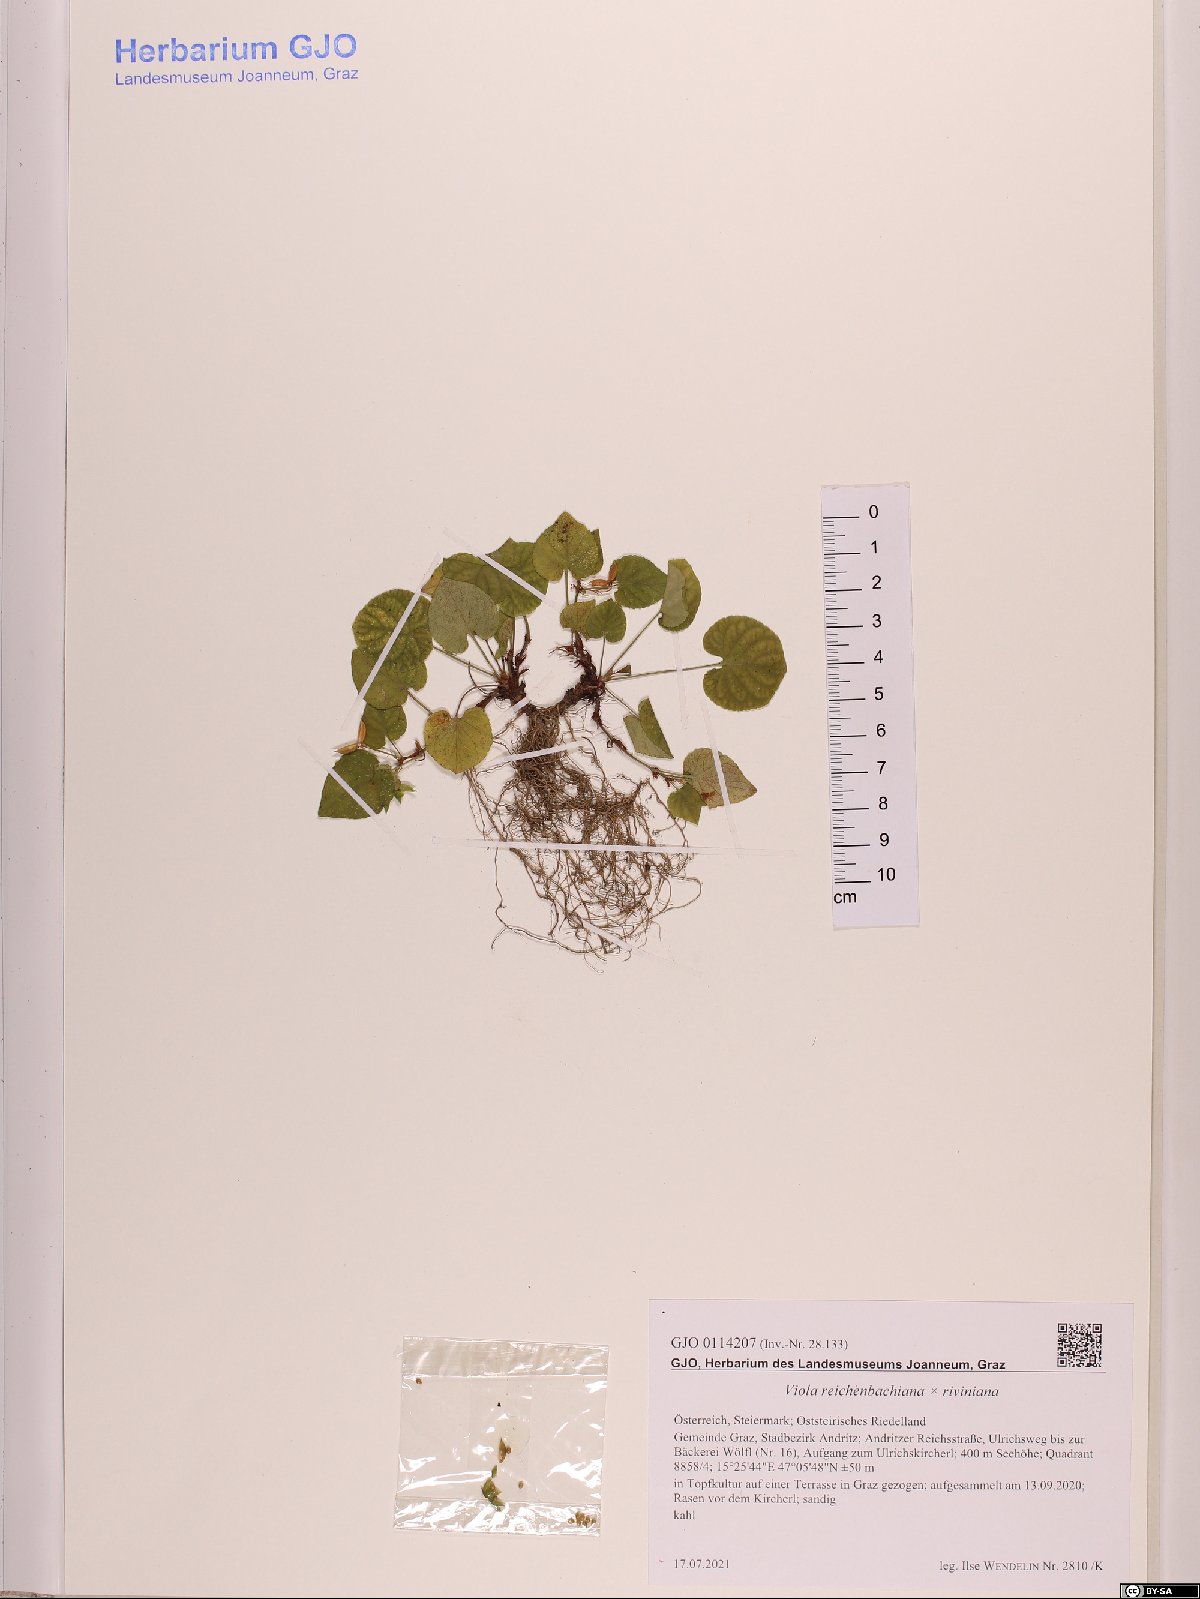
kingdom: Plantae
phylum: Tracheophyta
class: Magnoliopsida
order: Malpighiales
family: Violaceae
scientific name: Violaceae
